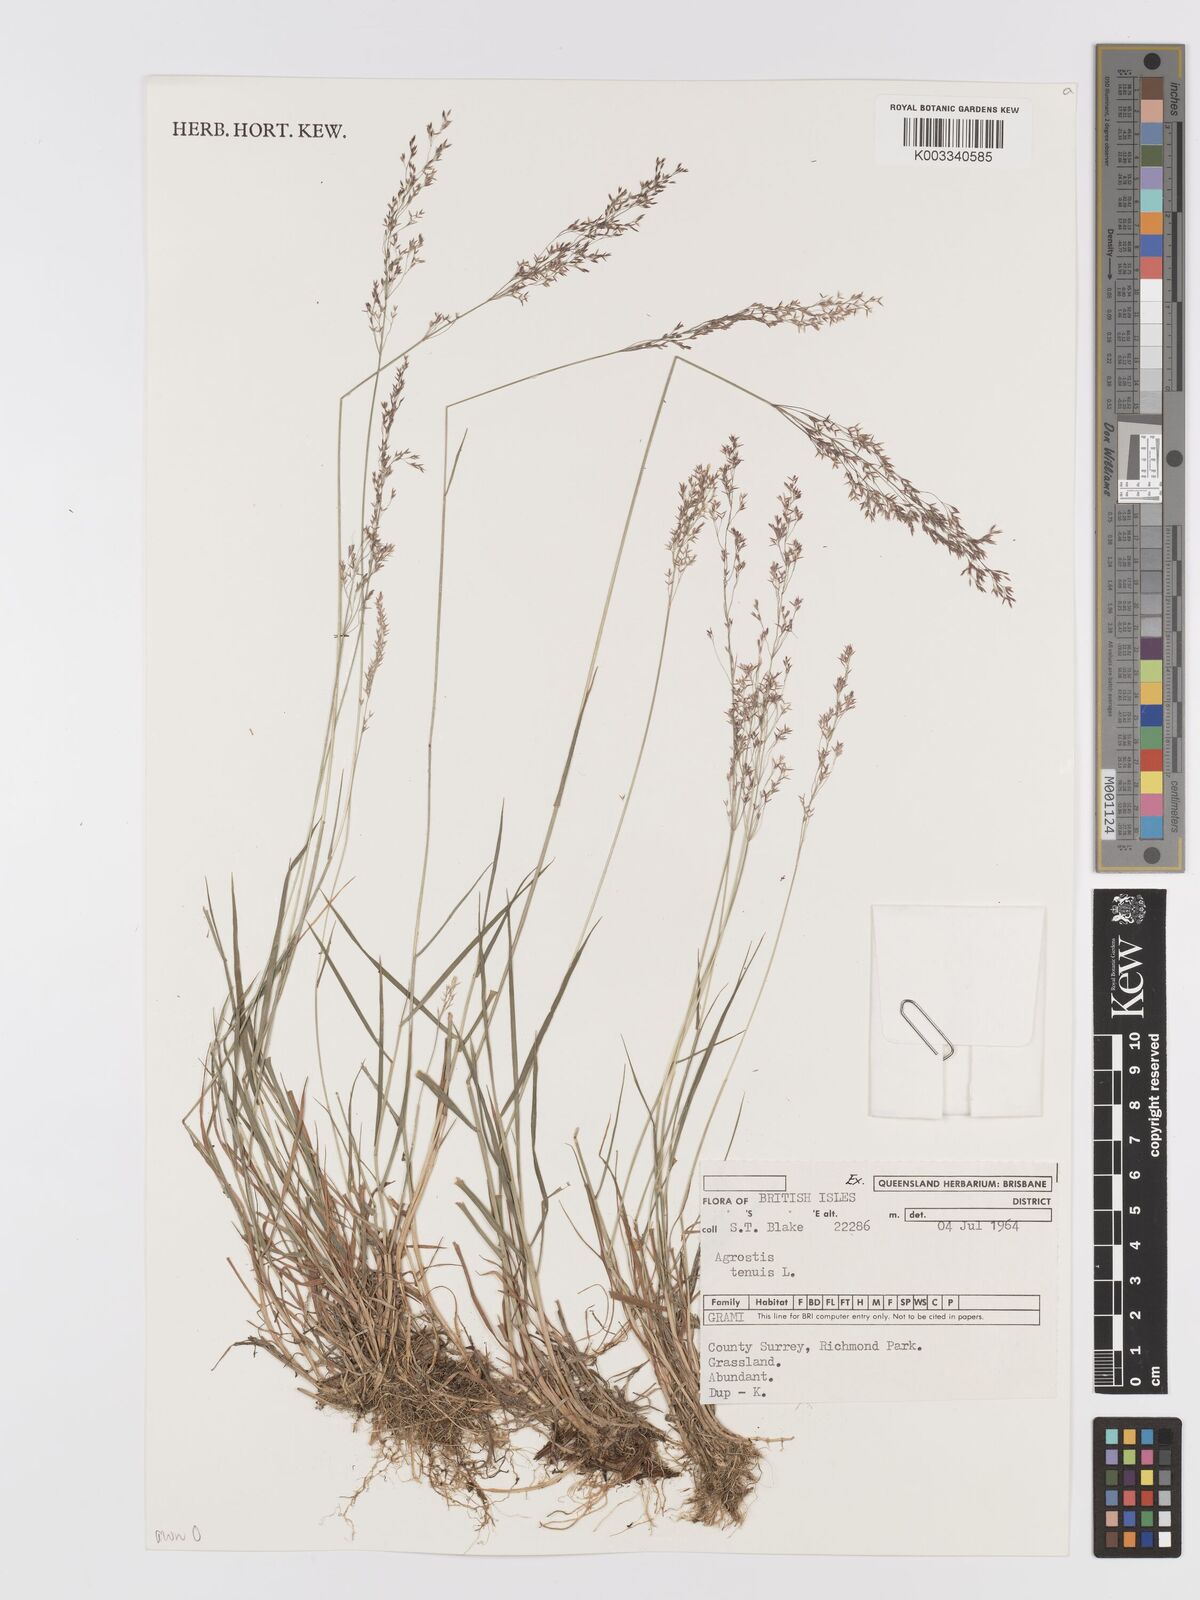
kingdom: Plantae
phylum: Tracheophyta
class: Liliopsida
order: Poales
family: Poaceae
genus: Agrostis
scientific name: Agrostis capillaris
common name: Colonial bentgrass
